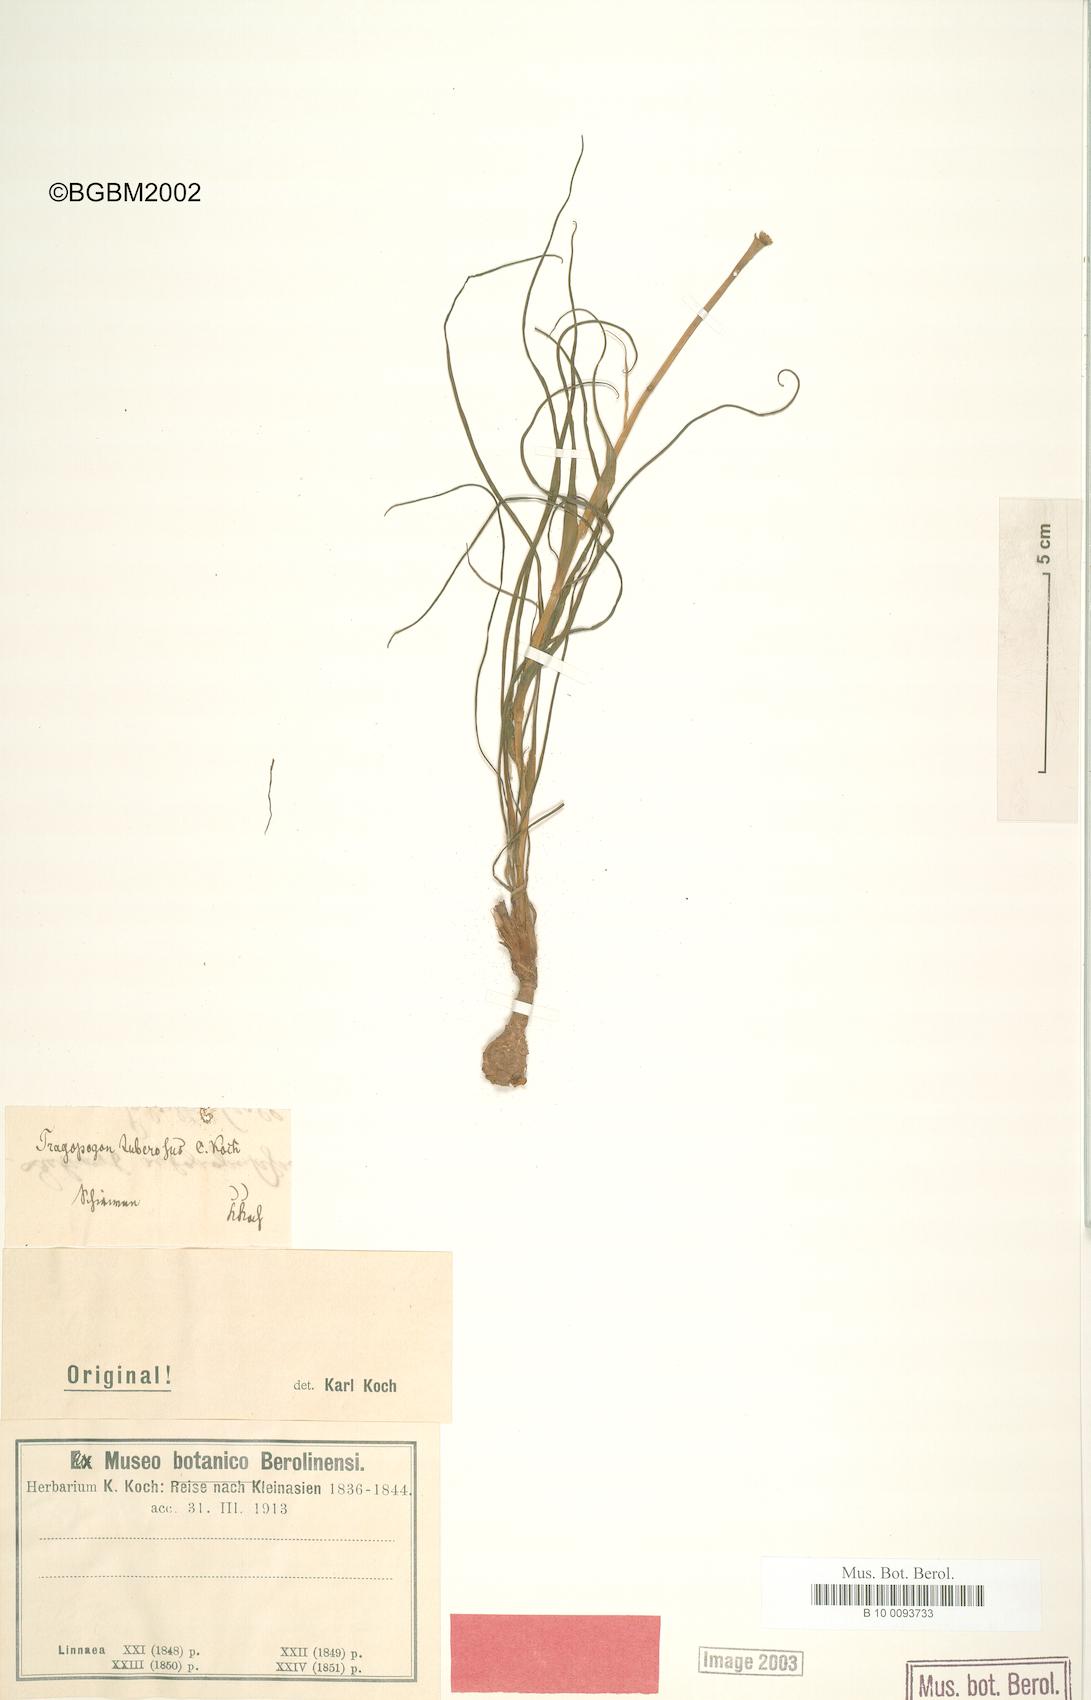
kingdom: Plantae
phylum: Tracheophyta
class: Magnoliopsida
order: Asterales
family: Asteraceae
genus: Tragopogon
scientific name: Tragopogon tuberosus
